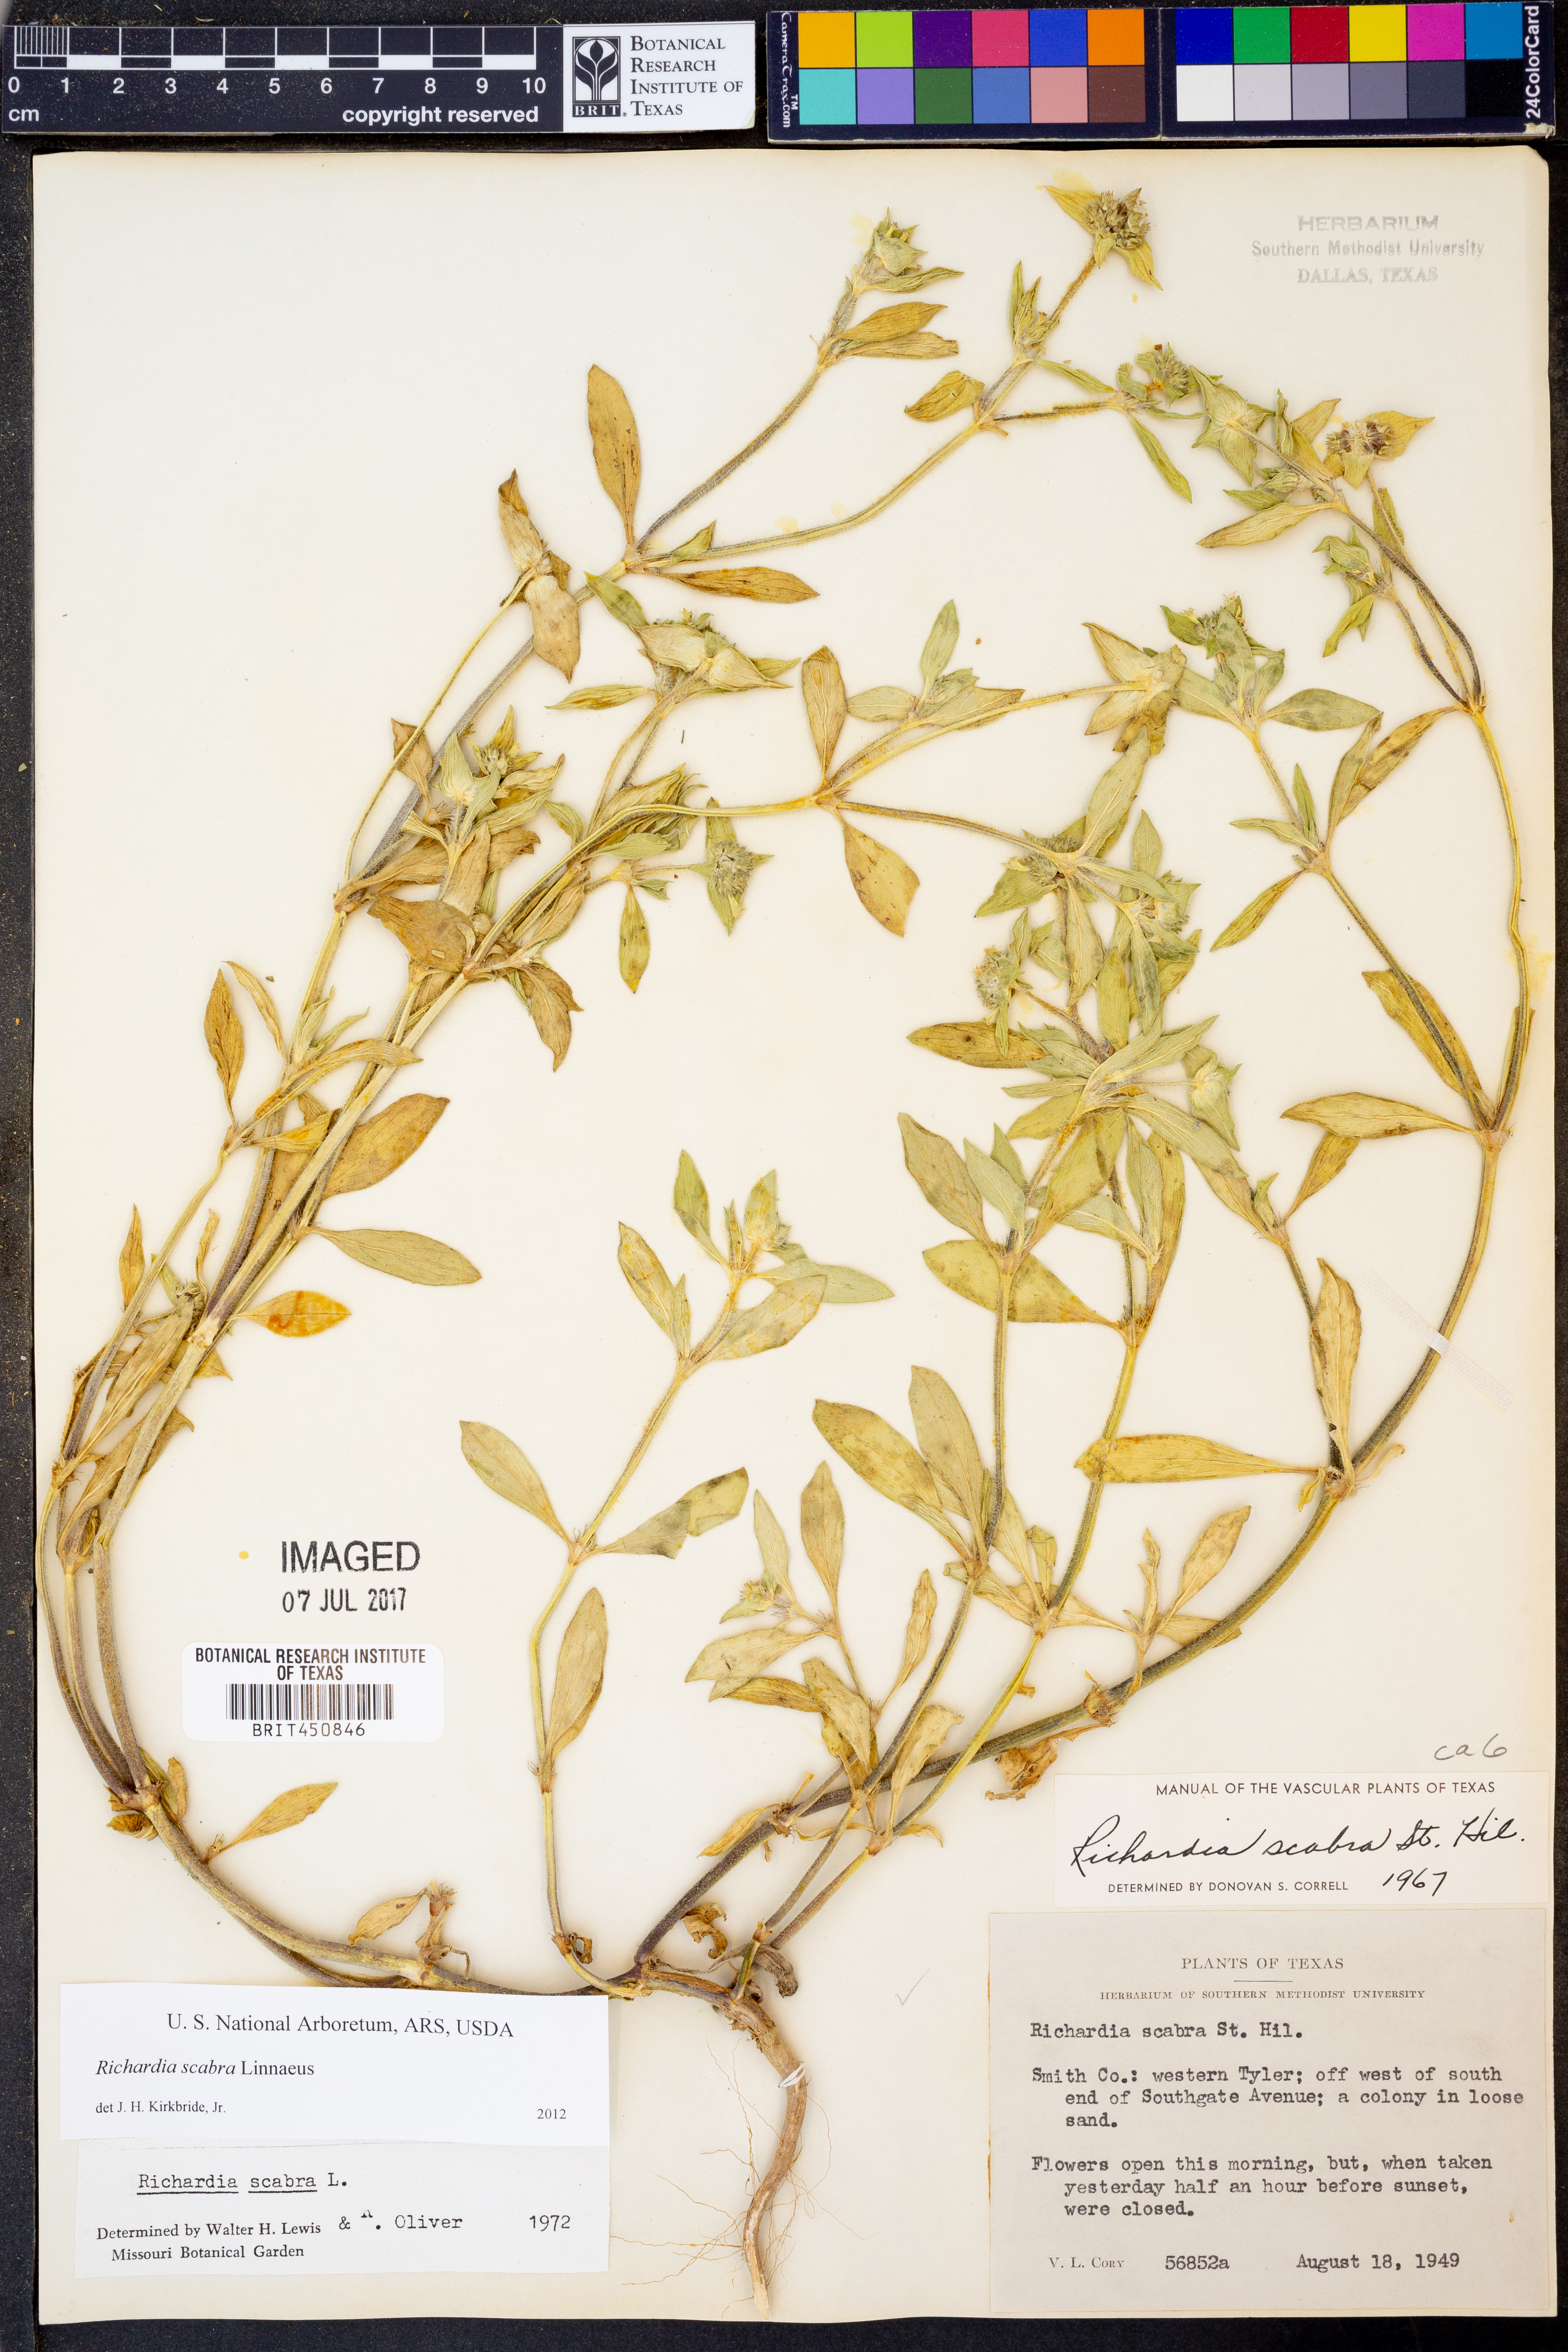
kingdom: Plantae
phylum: Tracheophyta
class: Magnoliopsida
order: Gentianales
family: Rubiaceae
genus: Richardia
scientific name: Richardia scabra
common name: Rough mexican clover
